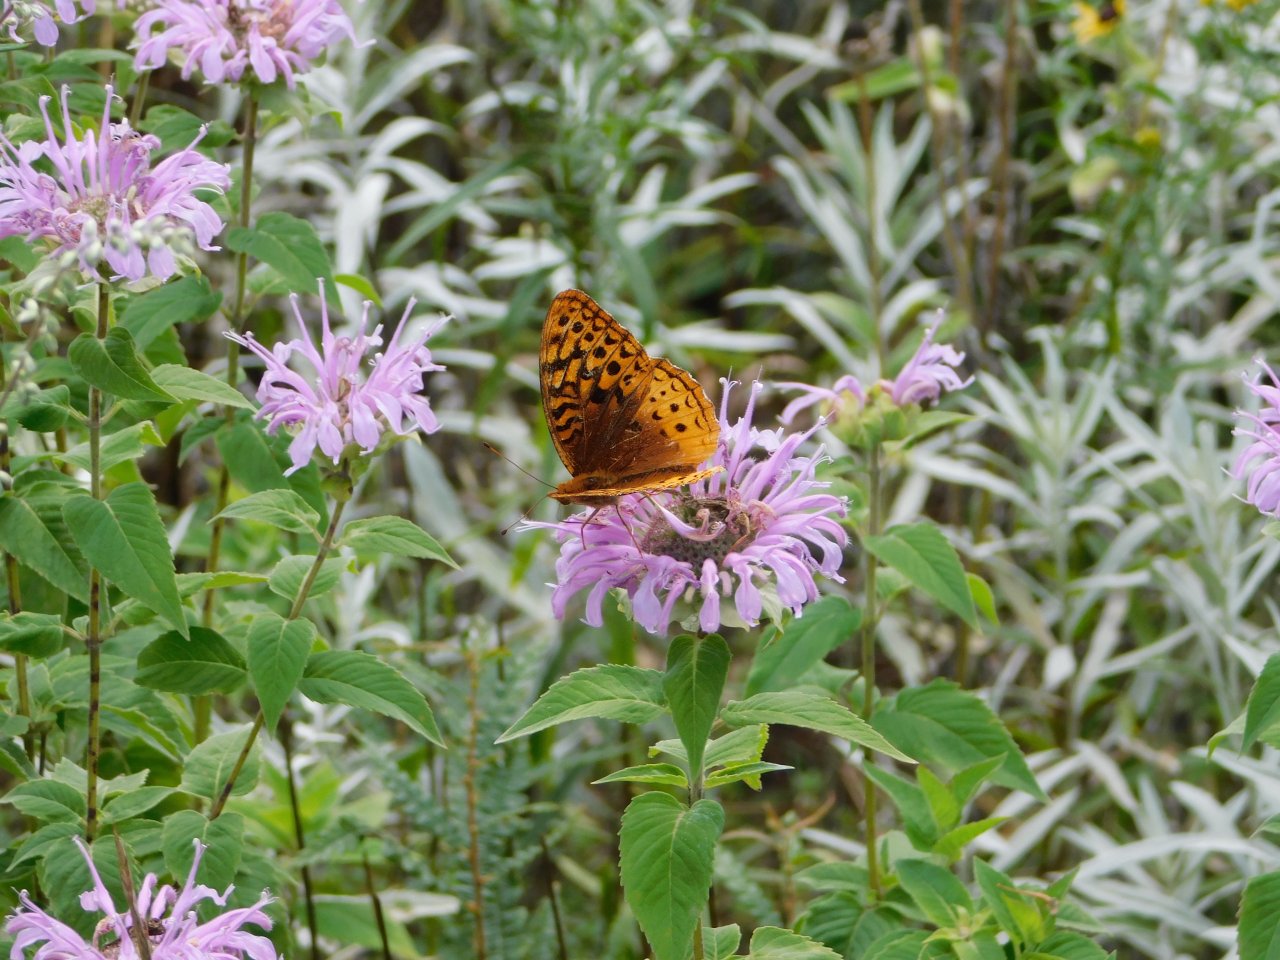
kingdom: Animalia
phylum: Arthropoda
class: Insecta
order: Lepidoptera
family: Nymphalidae
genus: Speyeria
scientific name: Speyeria cybele
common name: Great Spangled Fritillary
